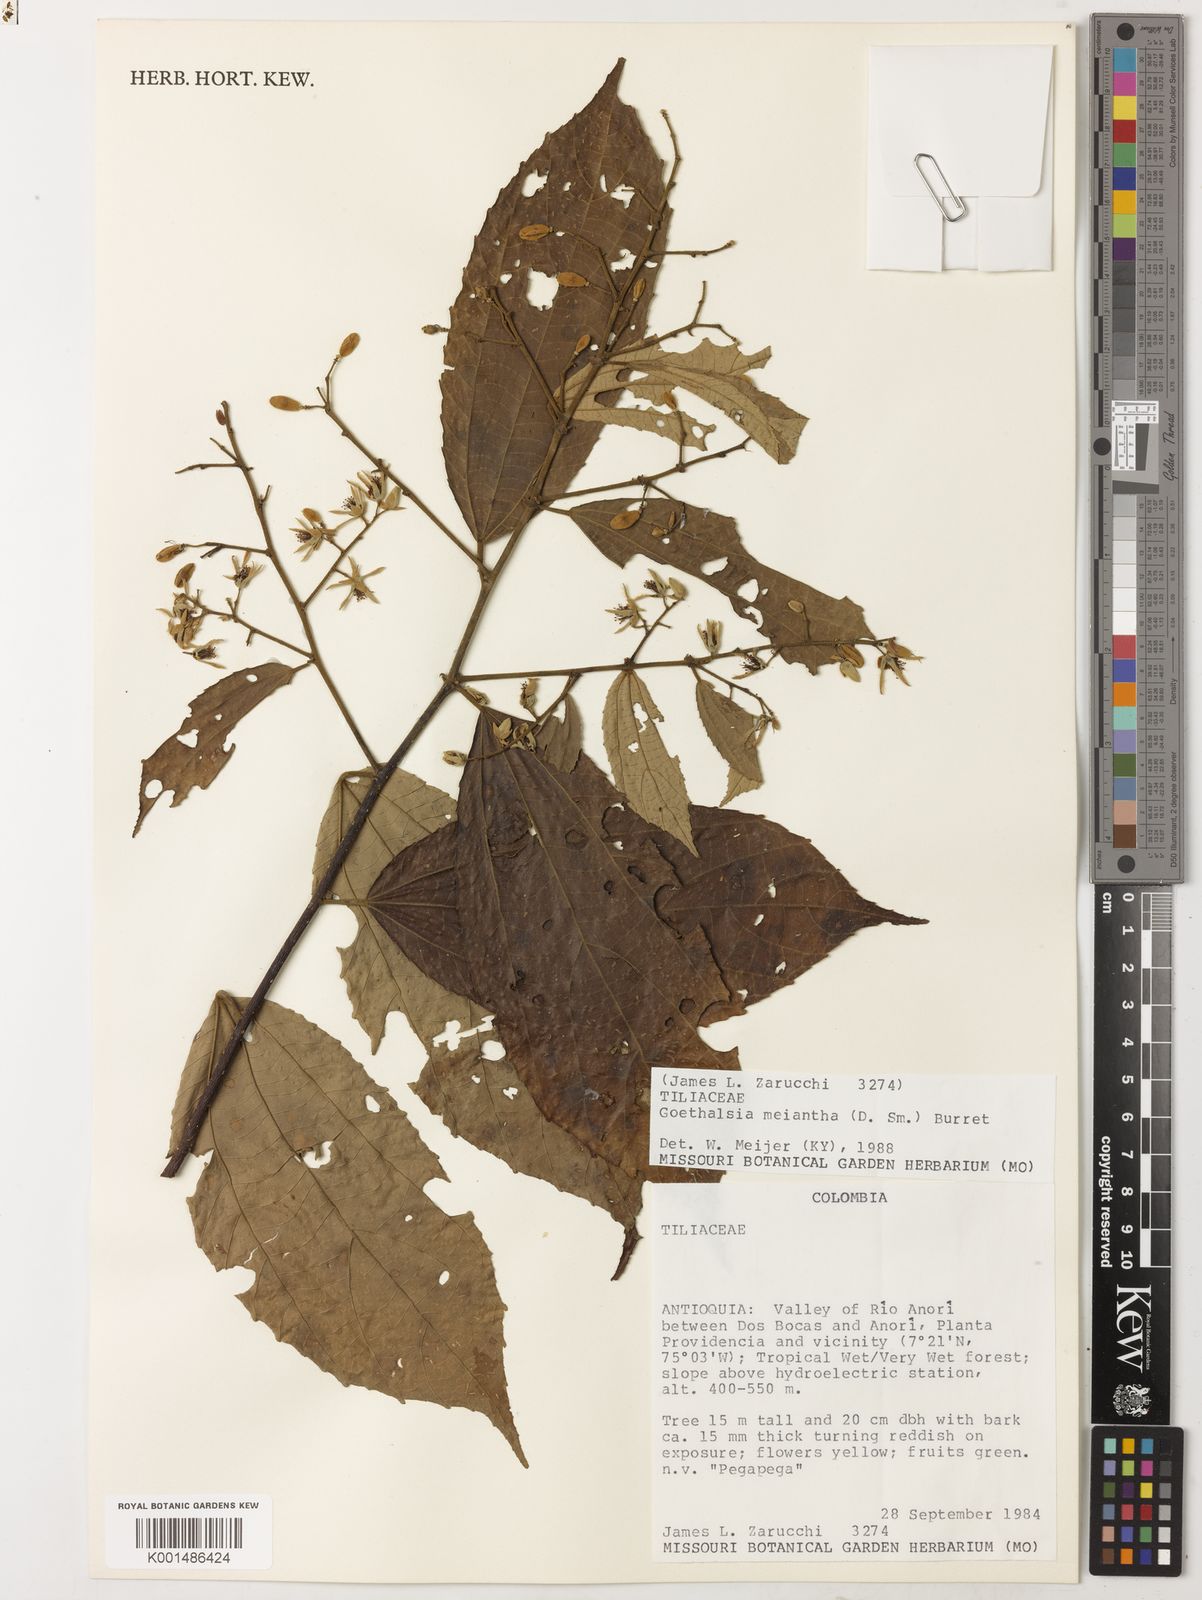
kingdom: Plantae
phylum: Tracheophyta
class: Magnoliopsida
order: Malvales
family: Malvaceae
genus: Goethalsia
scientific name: Goethalsia meiantha
